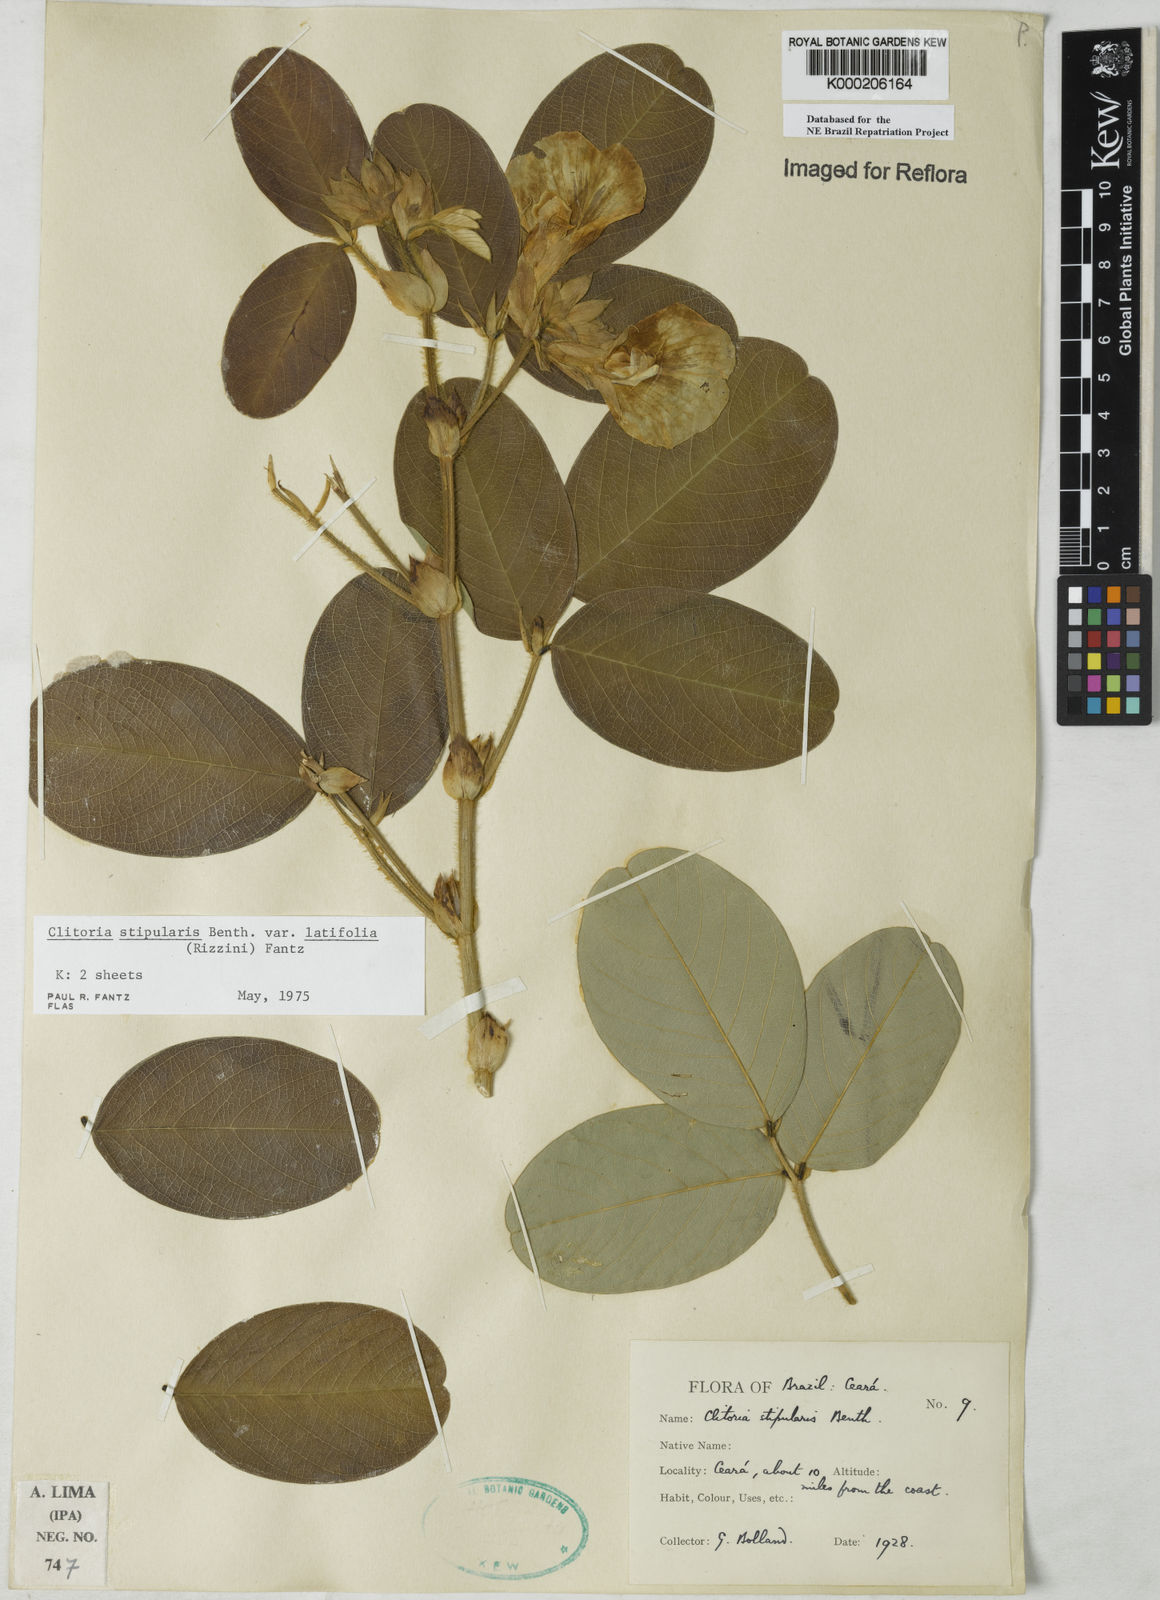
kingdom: Plantae
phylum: Tracheophyta
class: Magnoliopsida
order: Fabales
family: Fabaceae
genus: Clitoria
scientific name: Clitoria stipularis
